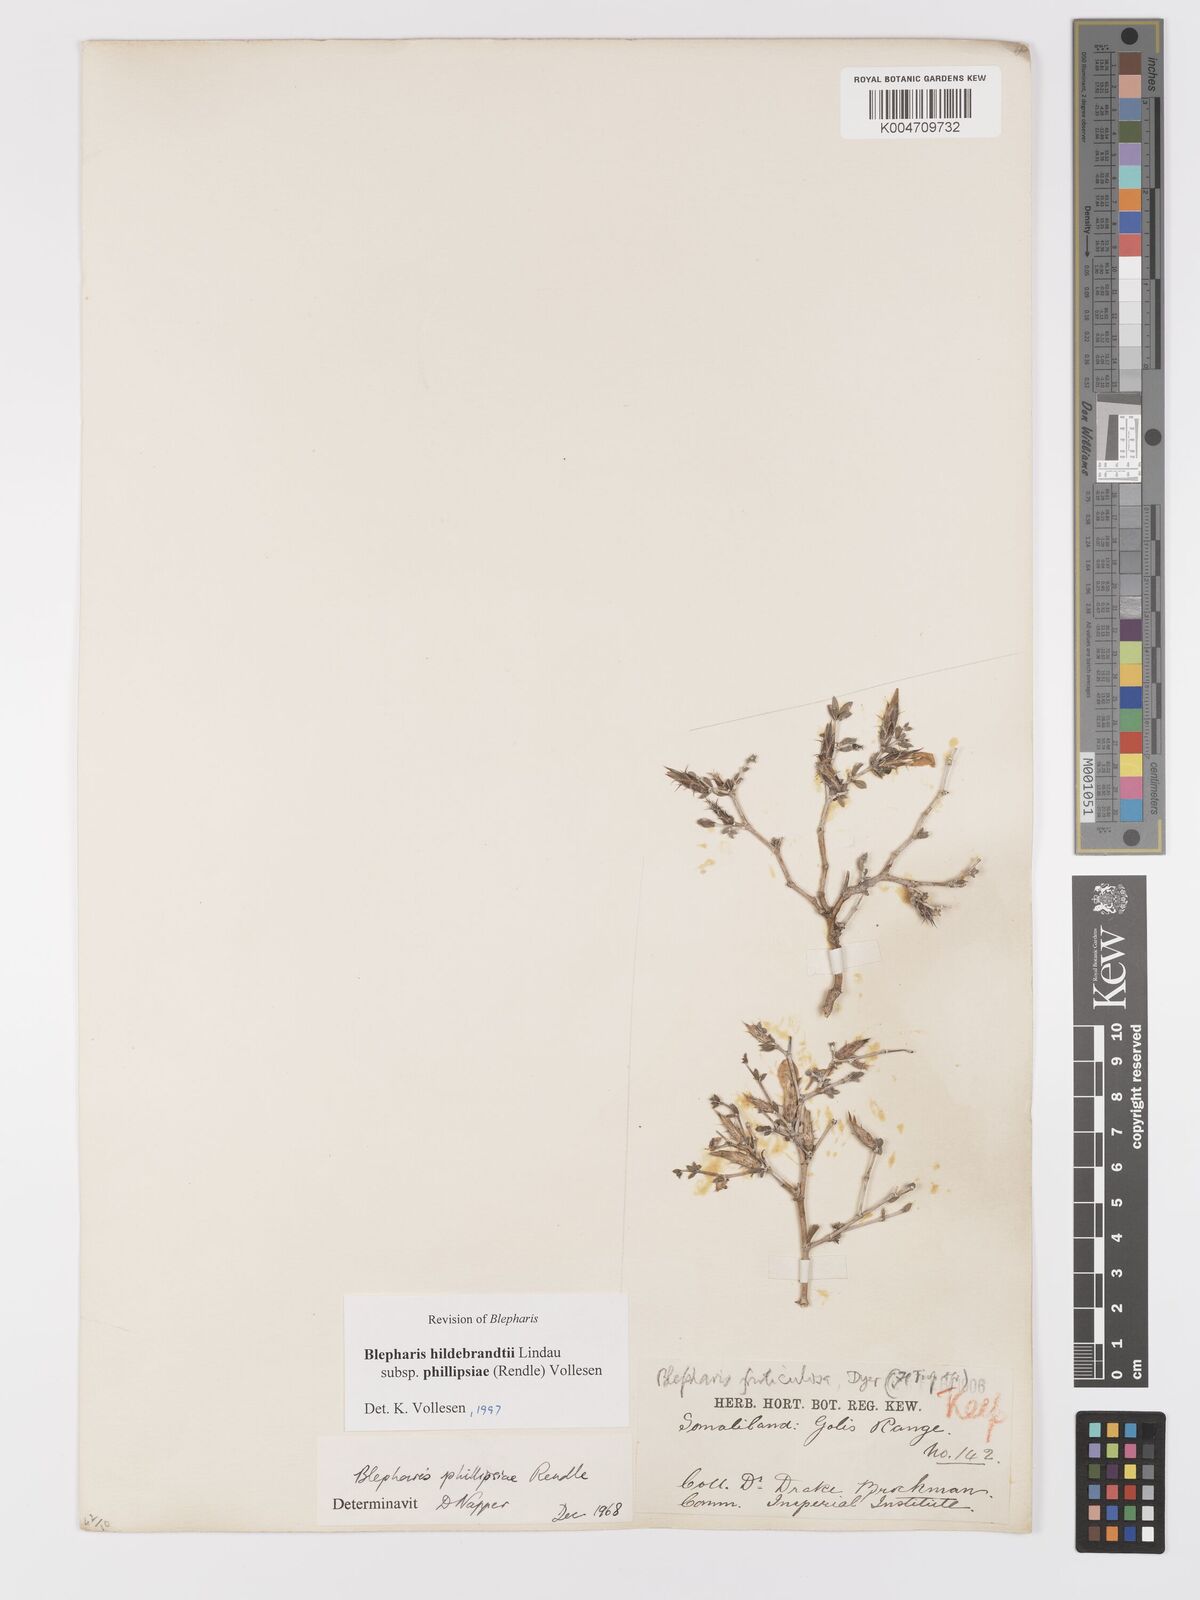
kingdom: Plantae
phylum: Tracheophyta
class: Magnoliopsida
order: Lamiales
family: Acanthaceae
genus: Blepharis
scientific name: Blepharis hildebrandtii
